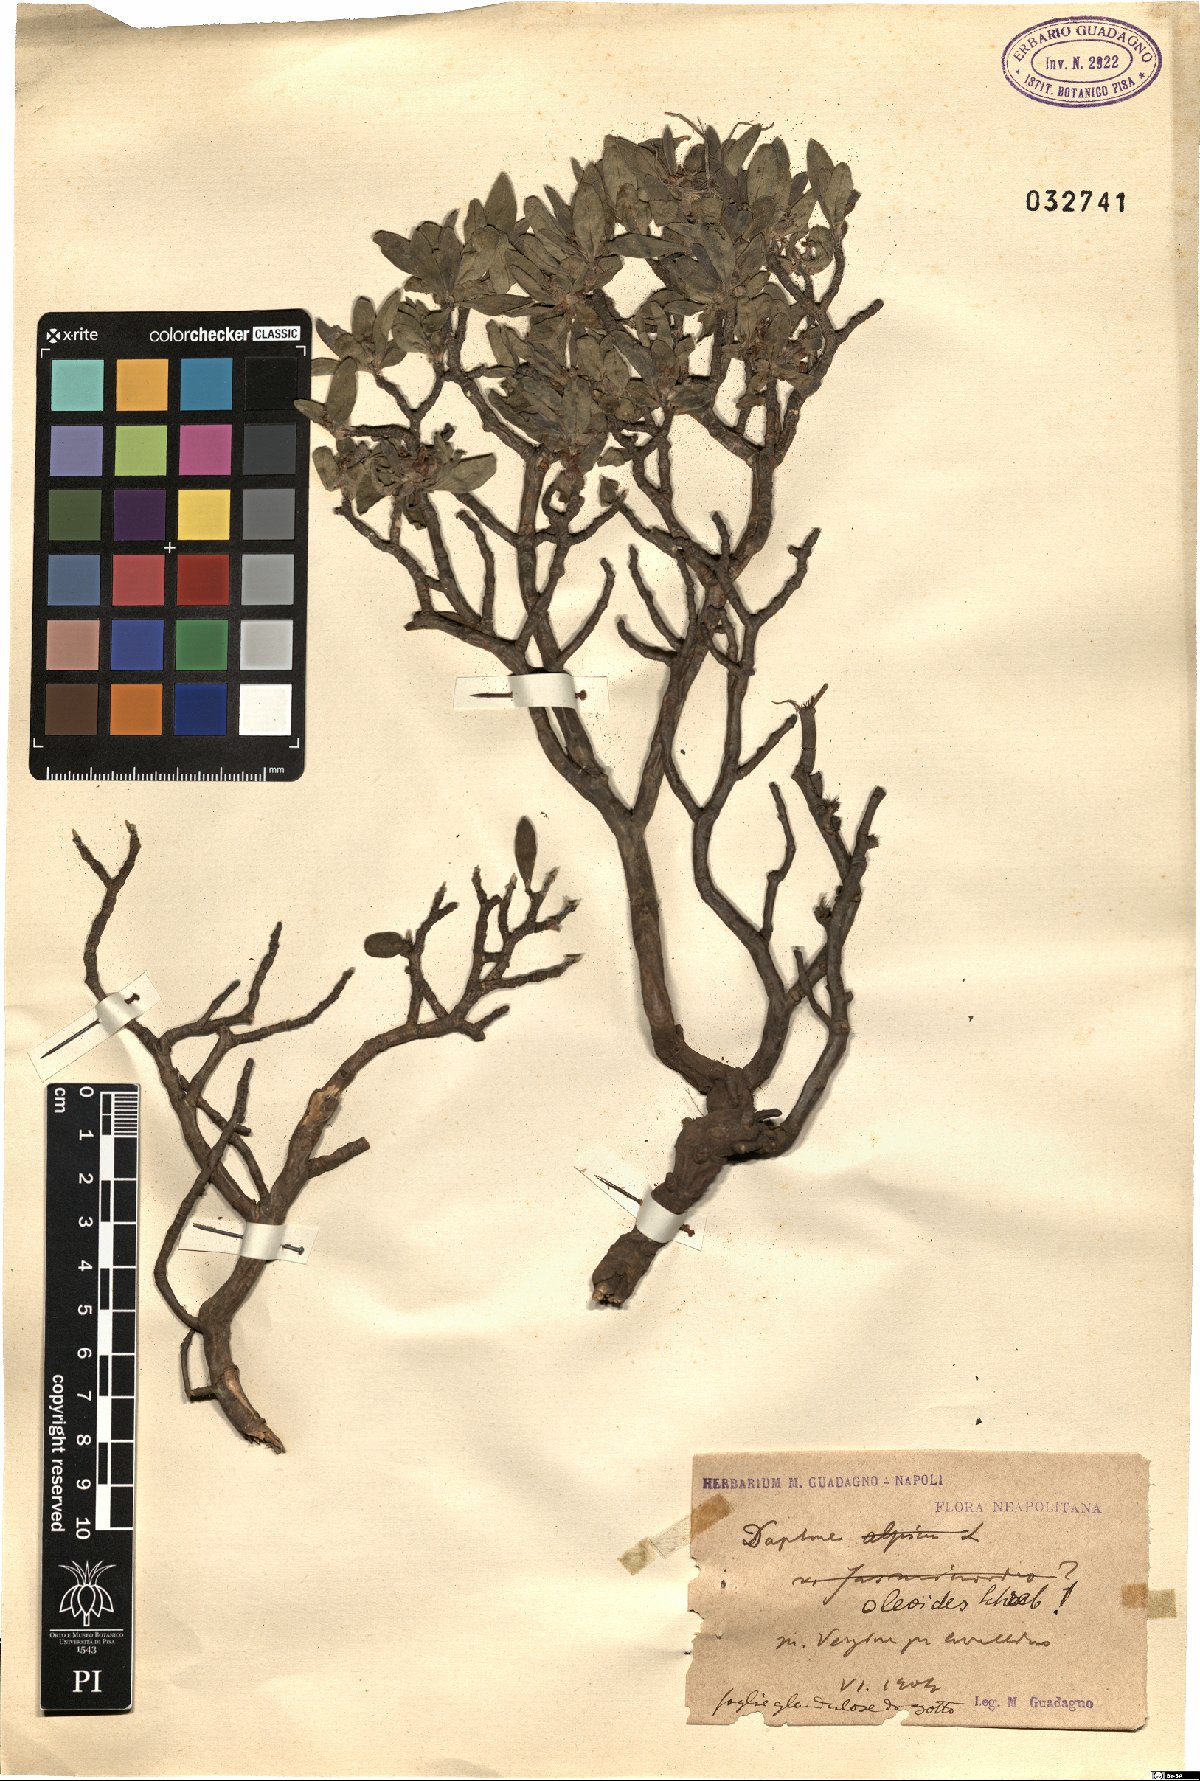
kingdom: Plantae
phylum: Tracheophyta
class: Magnoliopsida
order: Malvales
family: Thymelaeaceae
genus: Daphne
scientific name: Daphne oleoides
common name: Spurge-olive
